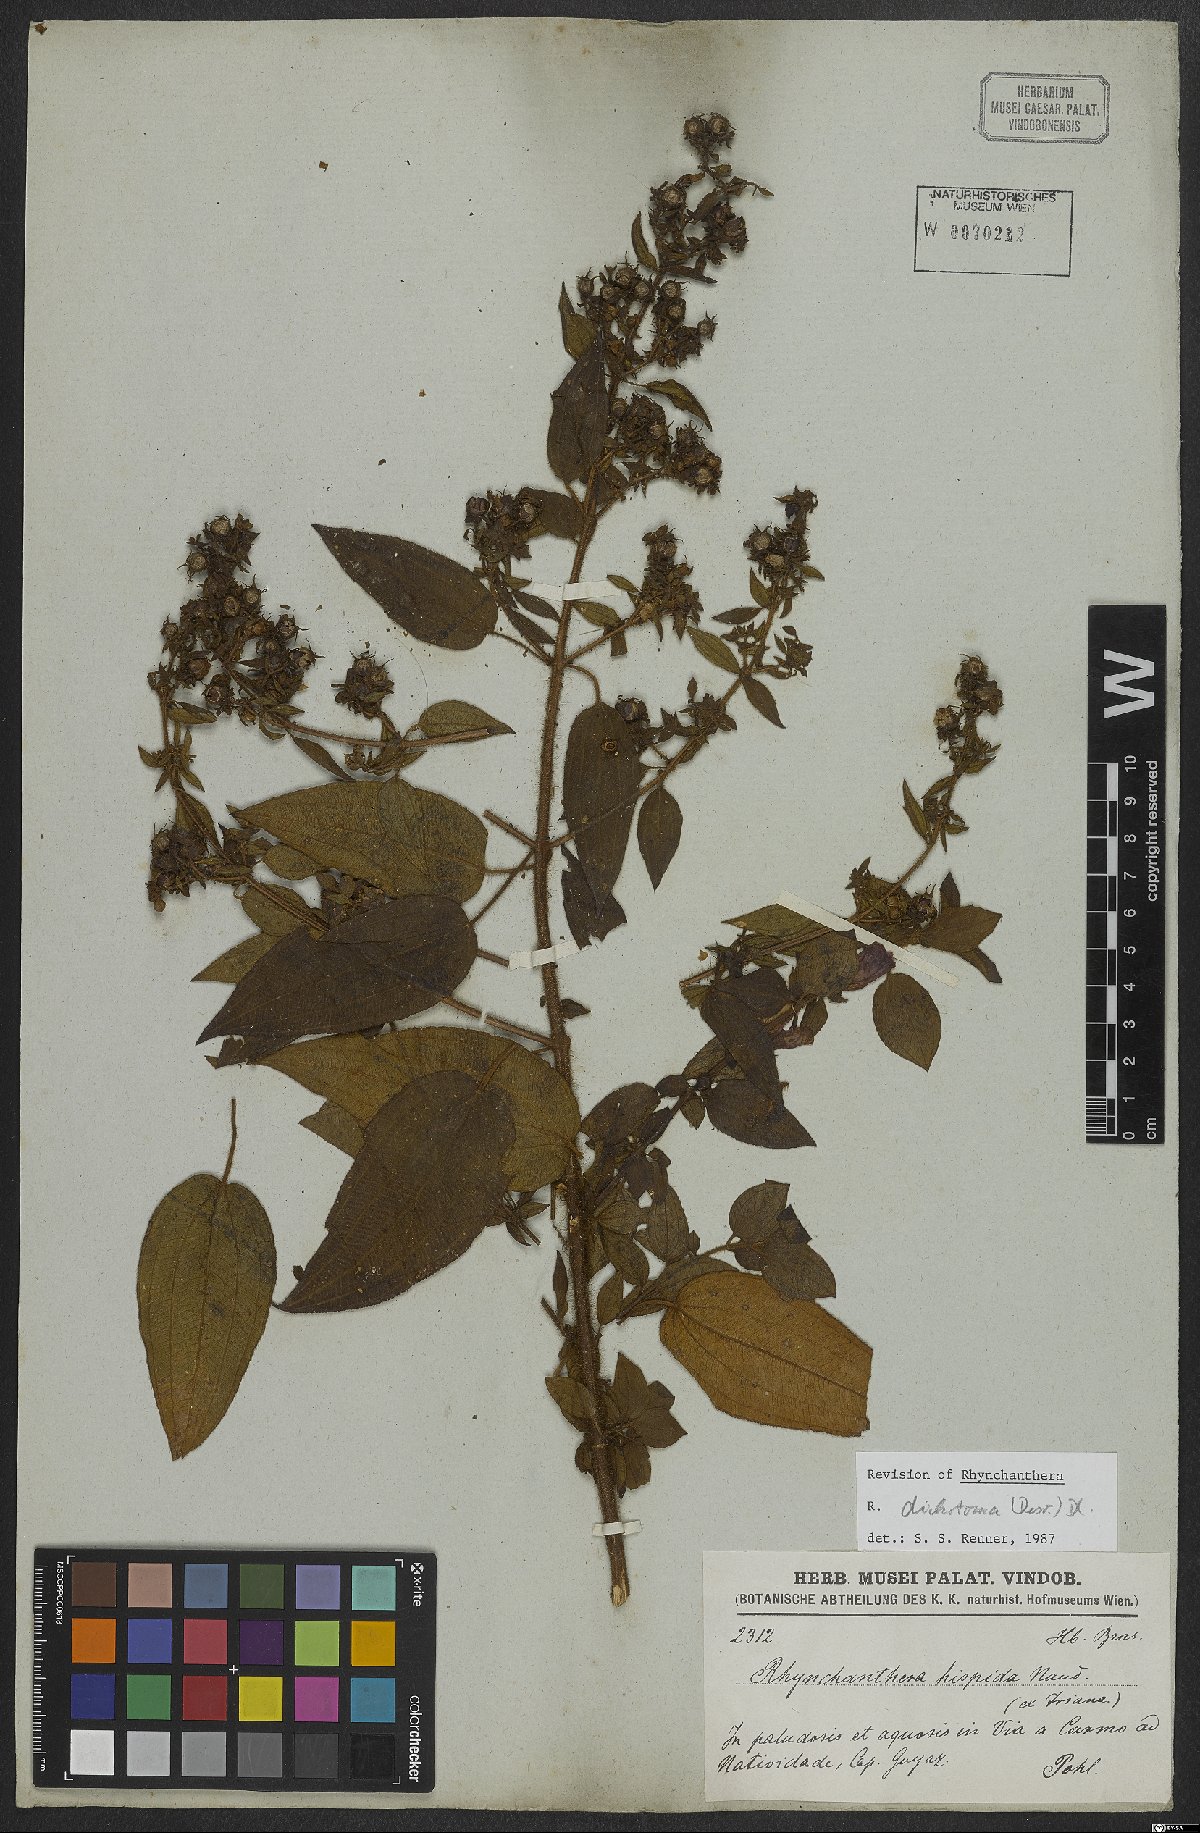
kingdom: Plantae
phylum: Tracheophyta
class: Magnoliopsida
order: Myrtales
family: Melastomataceae
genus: Rhynchanthera
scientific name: Rhynchanthera dichotoma
